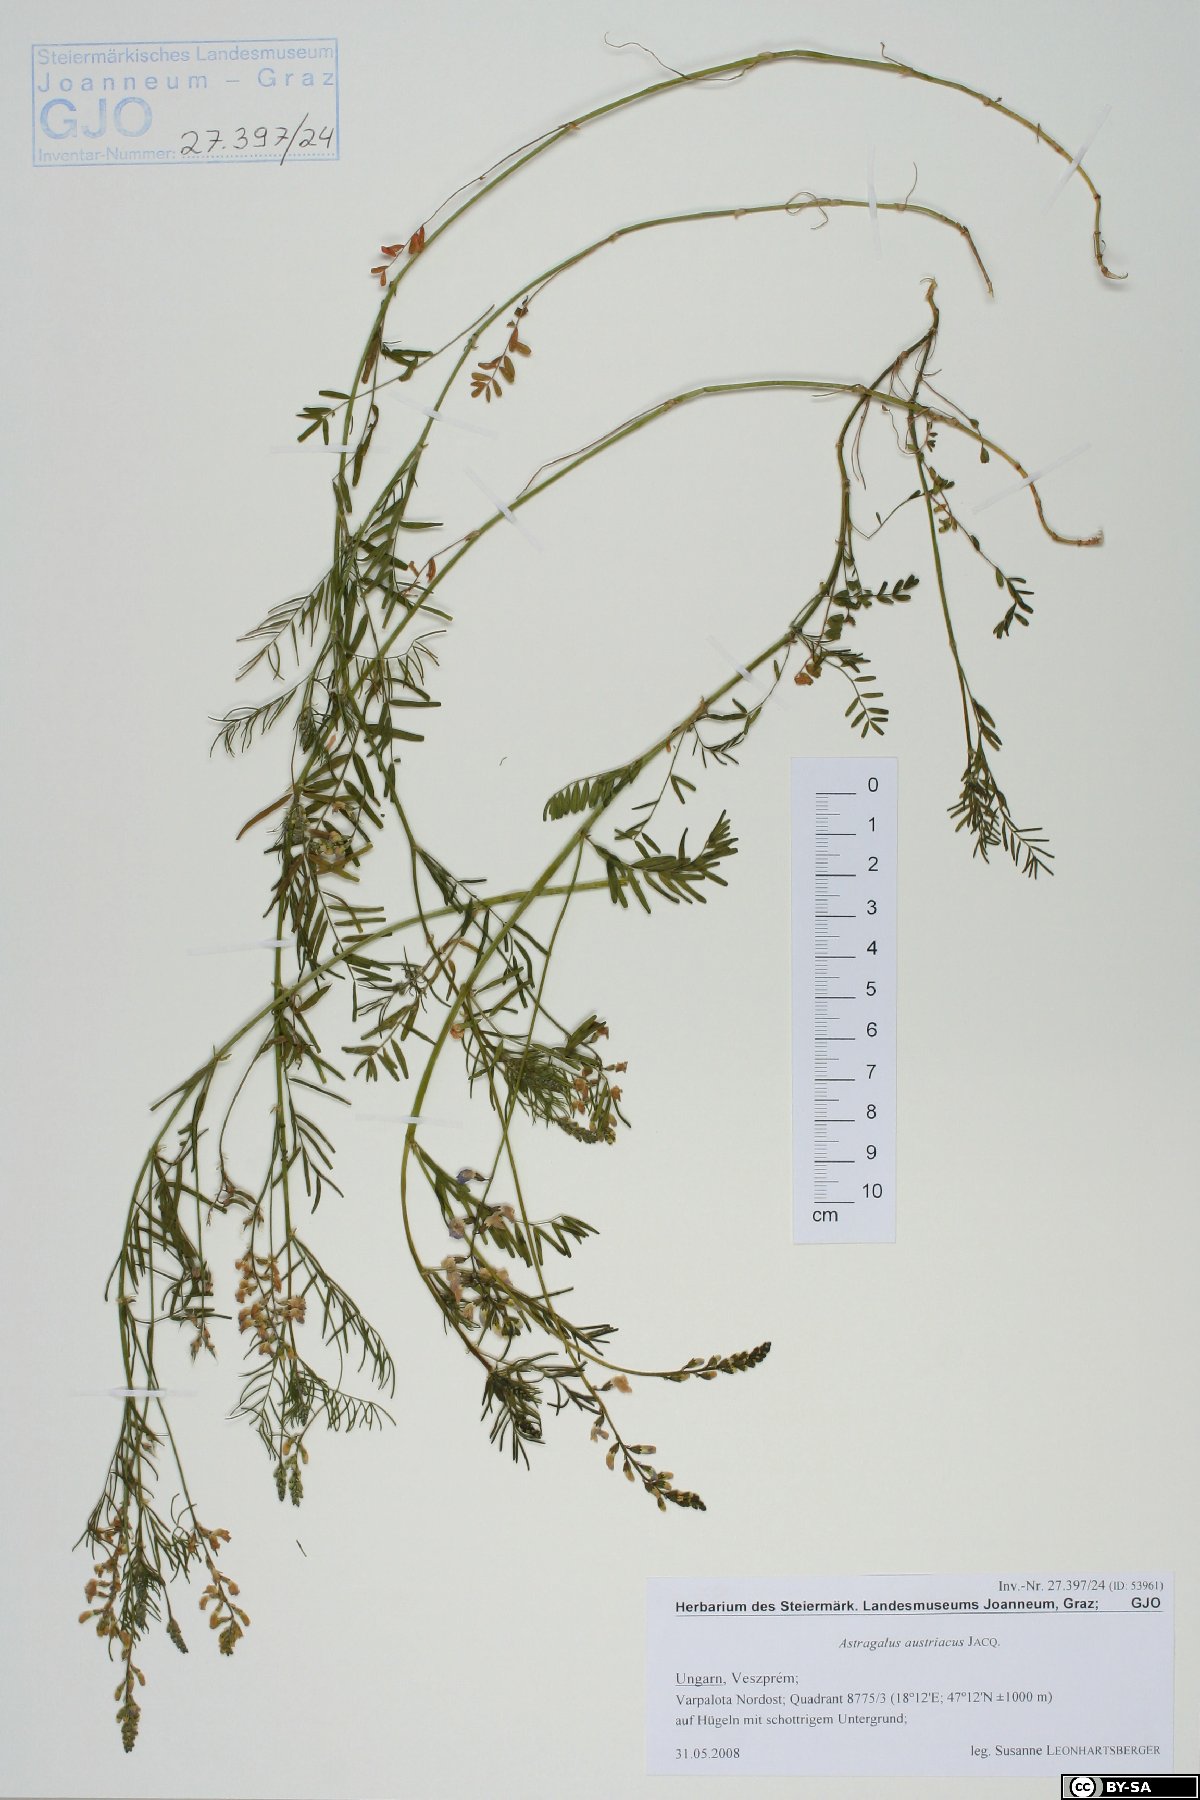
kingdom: Plantae
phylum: Tracheophyta
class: Magnoliopsida
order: Fabales
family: Fabaceae
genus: Astragalus
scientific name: Astragalus austriacus
